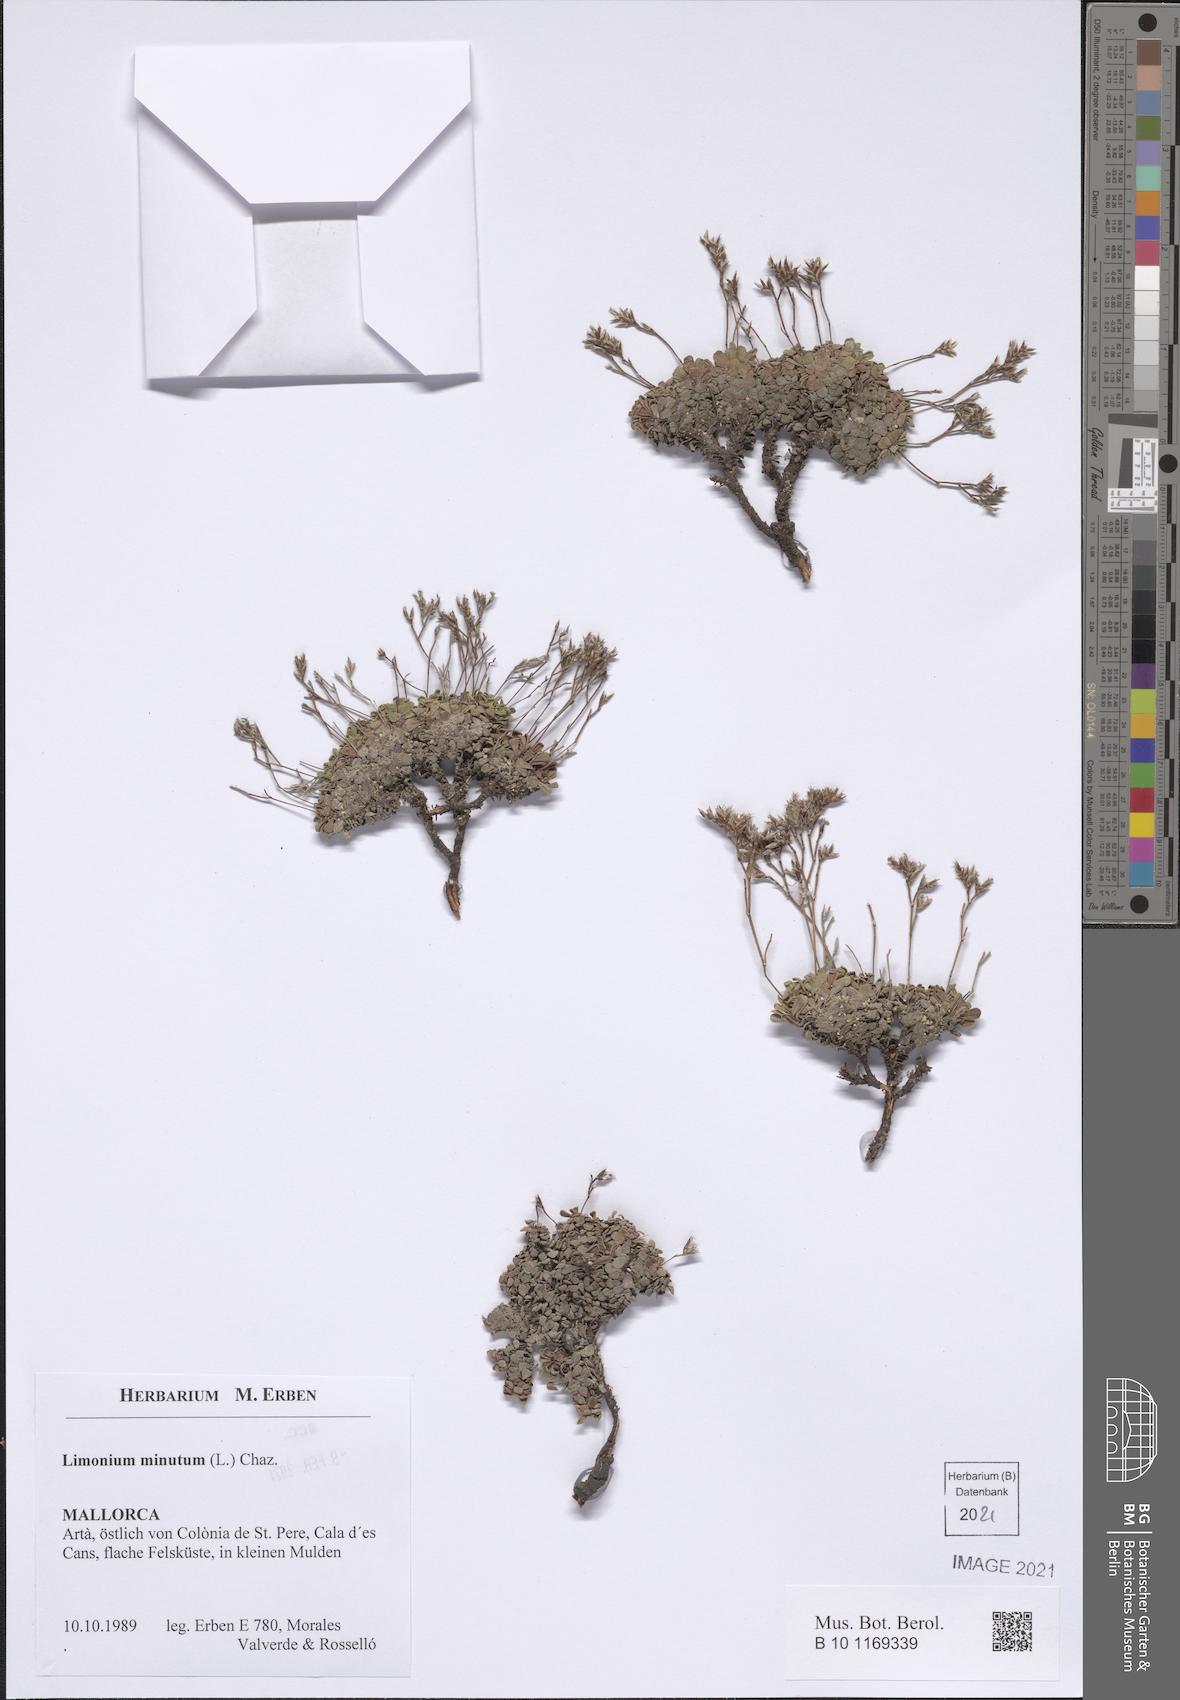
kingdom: Plantae
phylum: Tracheophyta
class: Magnoliopsida
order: Caryophyllales
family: Plumbaginaceae
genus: Limonium
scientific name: Limonium minutum
